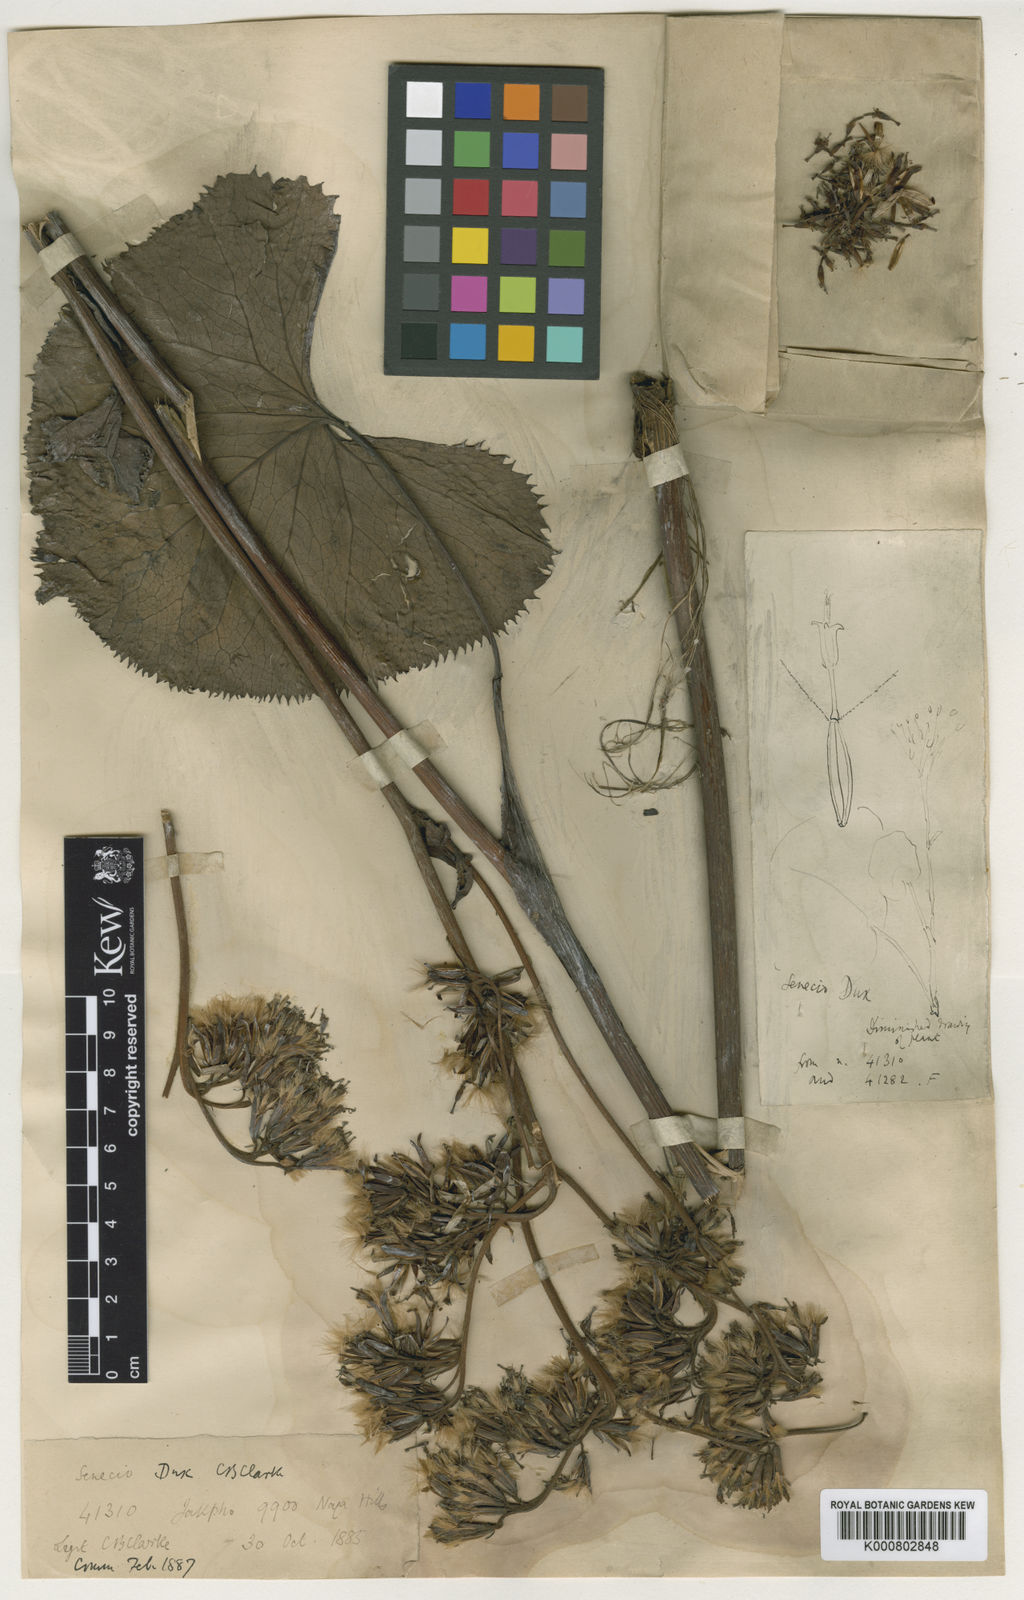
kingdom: Plantae
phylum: Tracheophyta
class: Magnoliopsida
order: Asterales
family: Asteraceae
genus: Ligularia
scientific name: Ligularia dux
